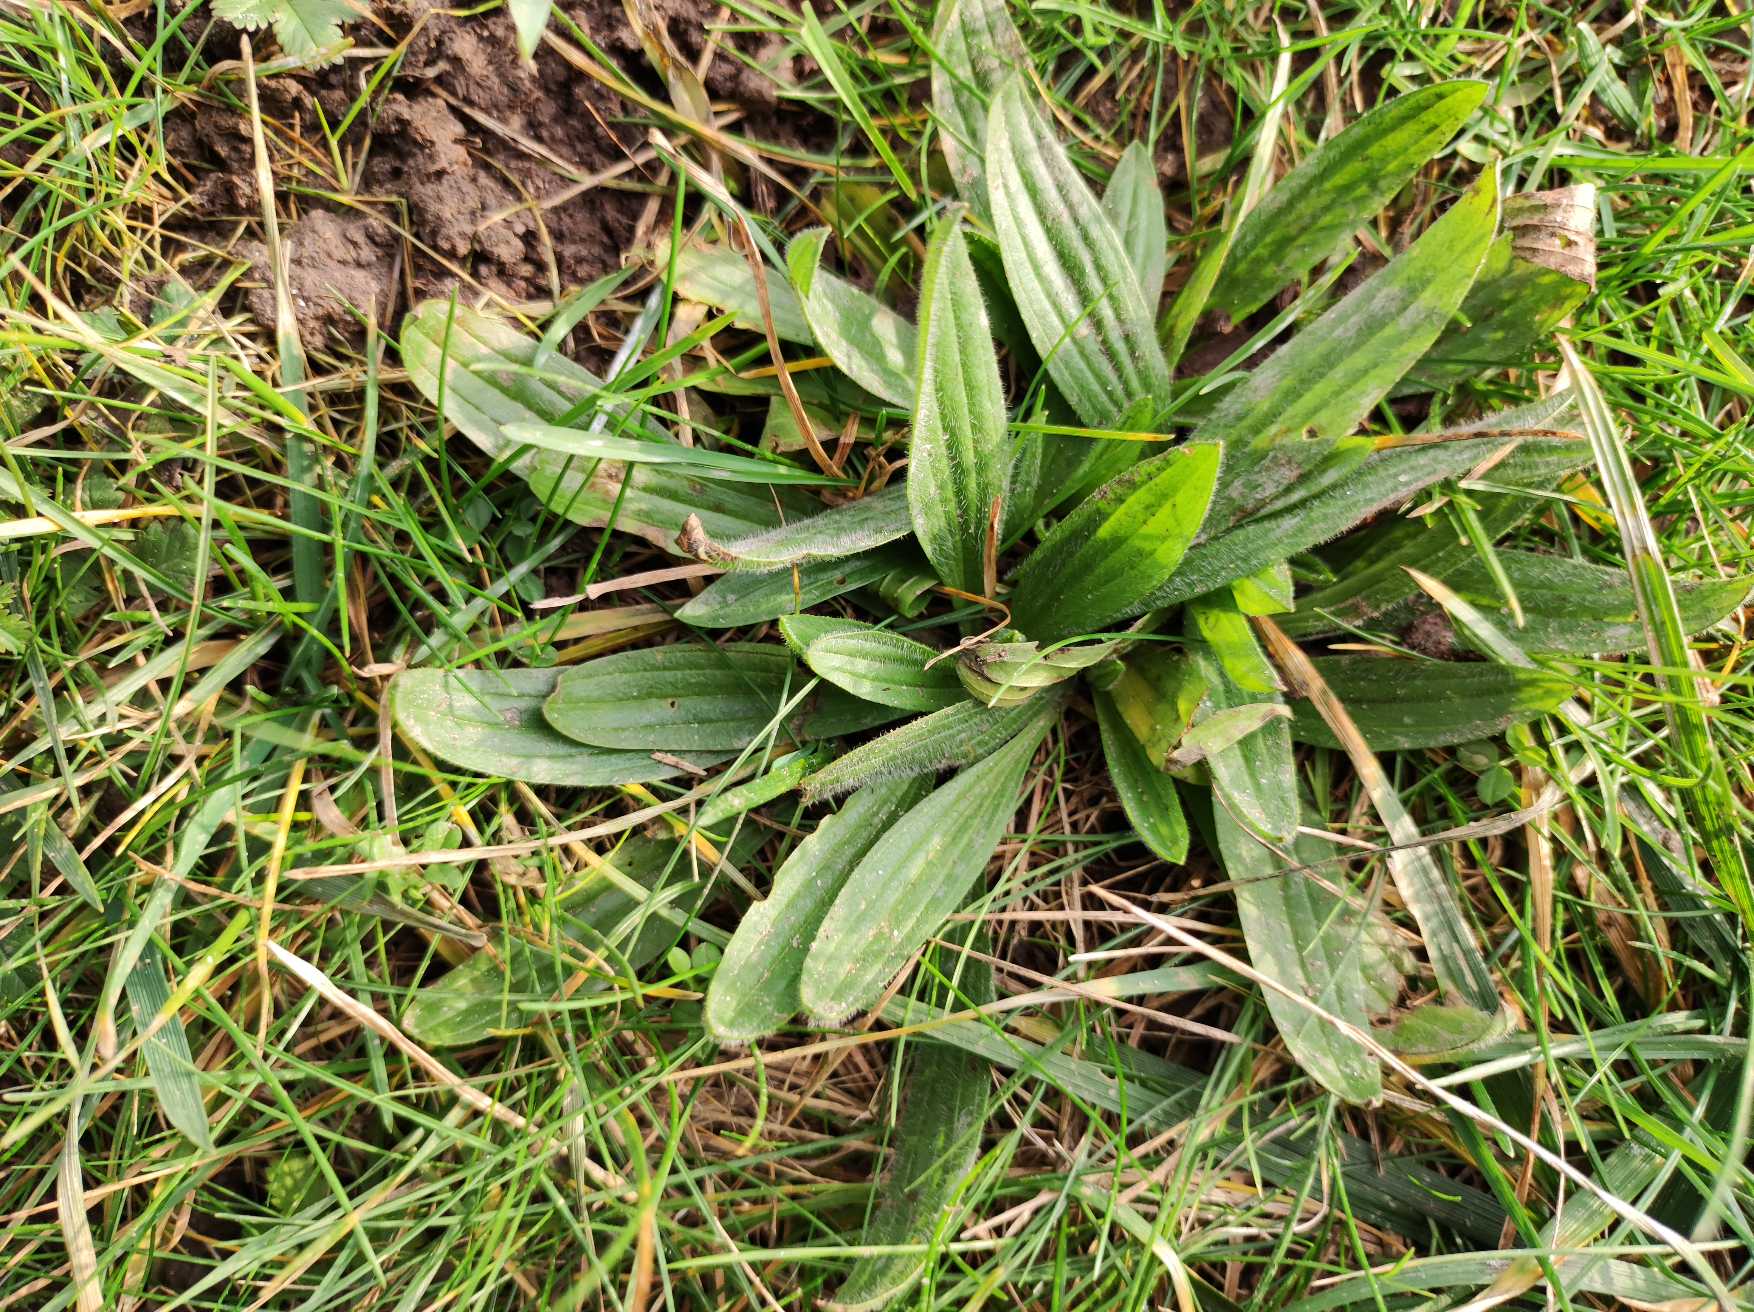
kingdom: Plantae
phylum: Tracheophyta
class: Magnoliopsida
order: Lamiales
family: Plantaginaceae
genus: Plantago
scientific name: Plantago lanceolata
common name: Lancet-vejbred
